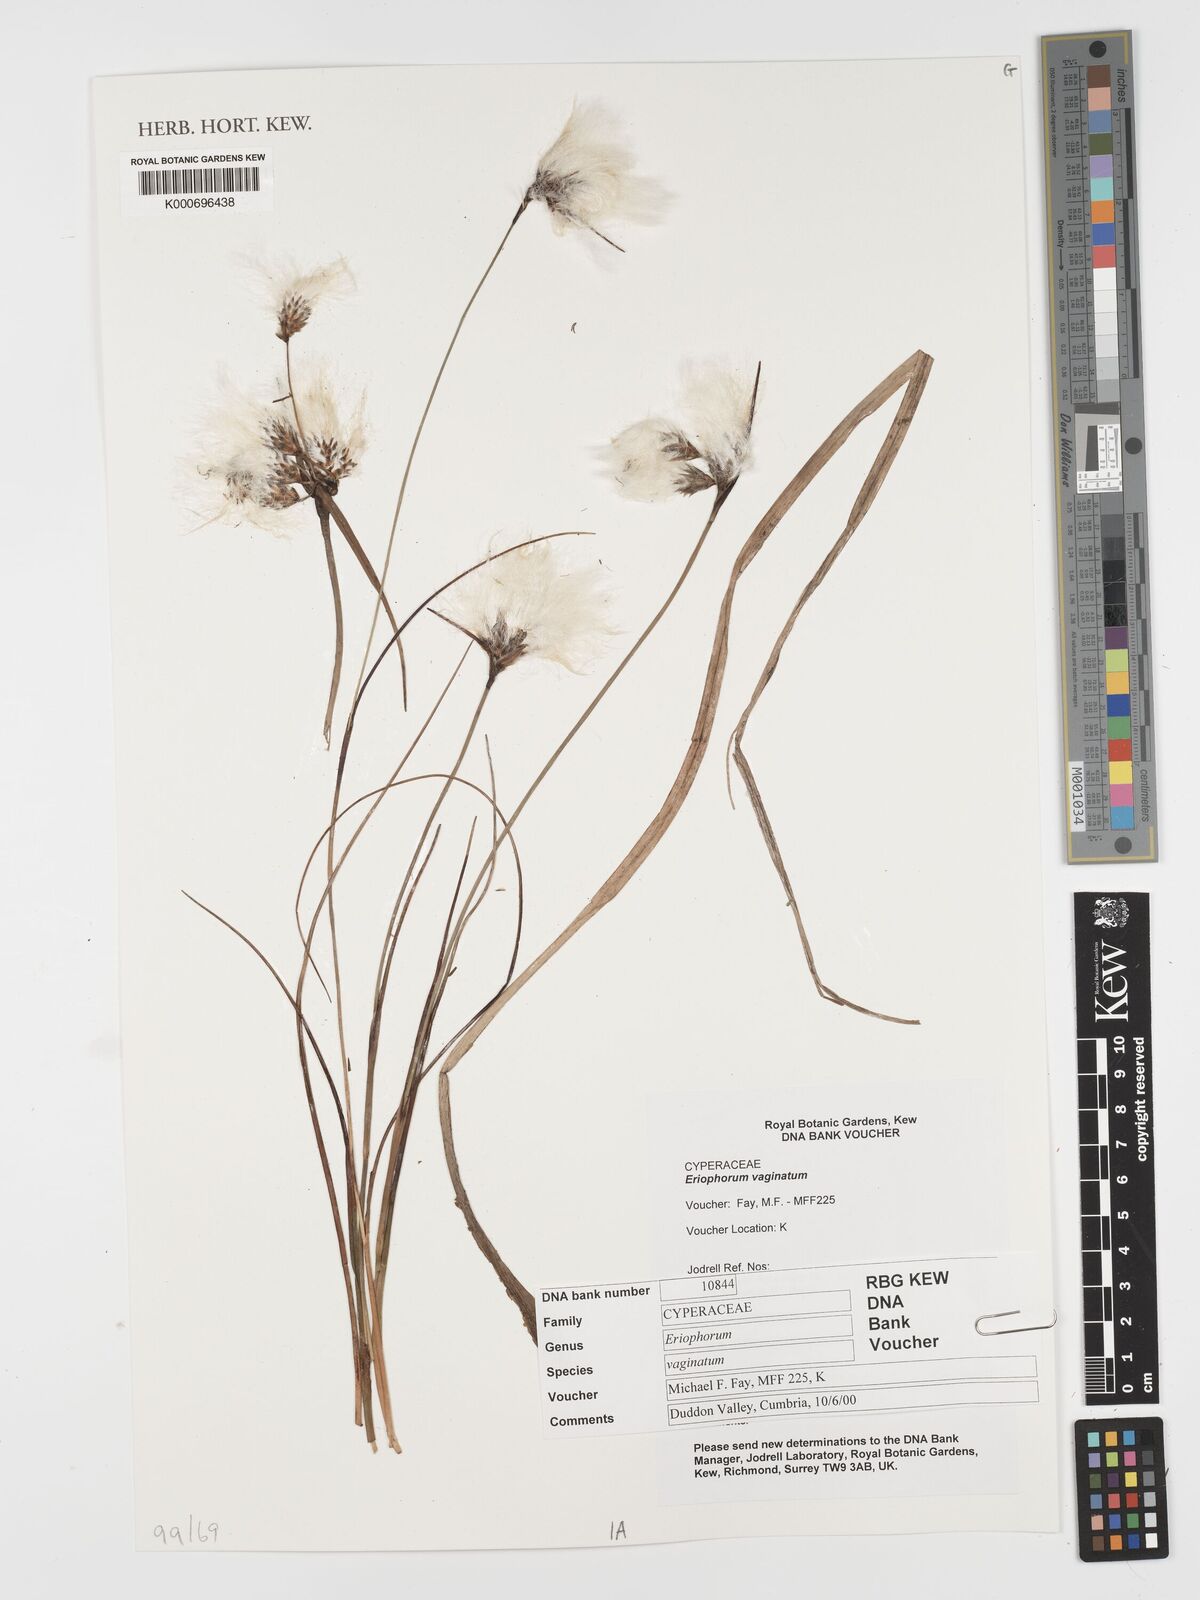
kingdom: Plantae
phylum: Tracheophyta
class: Liliopsida
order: Poales
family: Cyperaceae
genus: Eriophorum
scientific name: Eriophorum vaginatum
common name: Hare's-tail cottongrass
